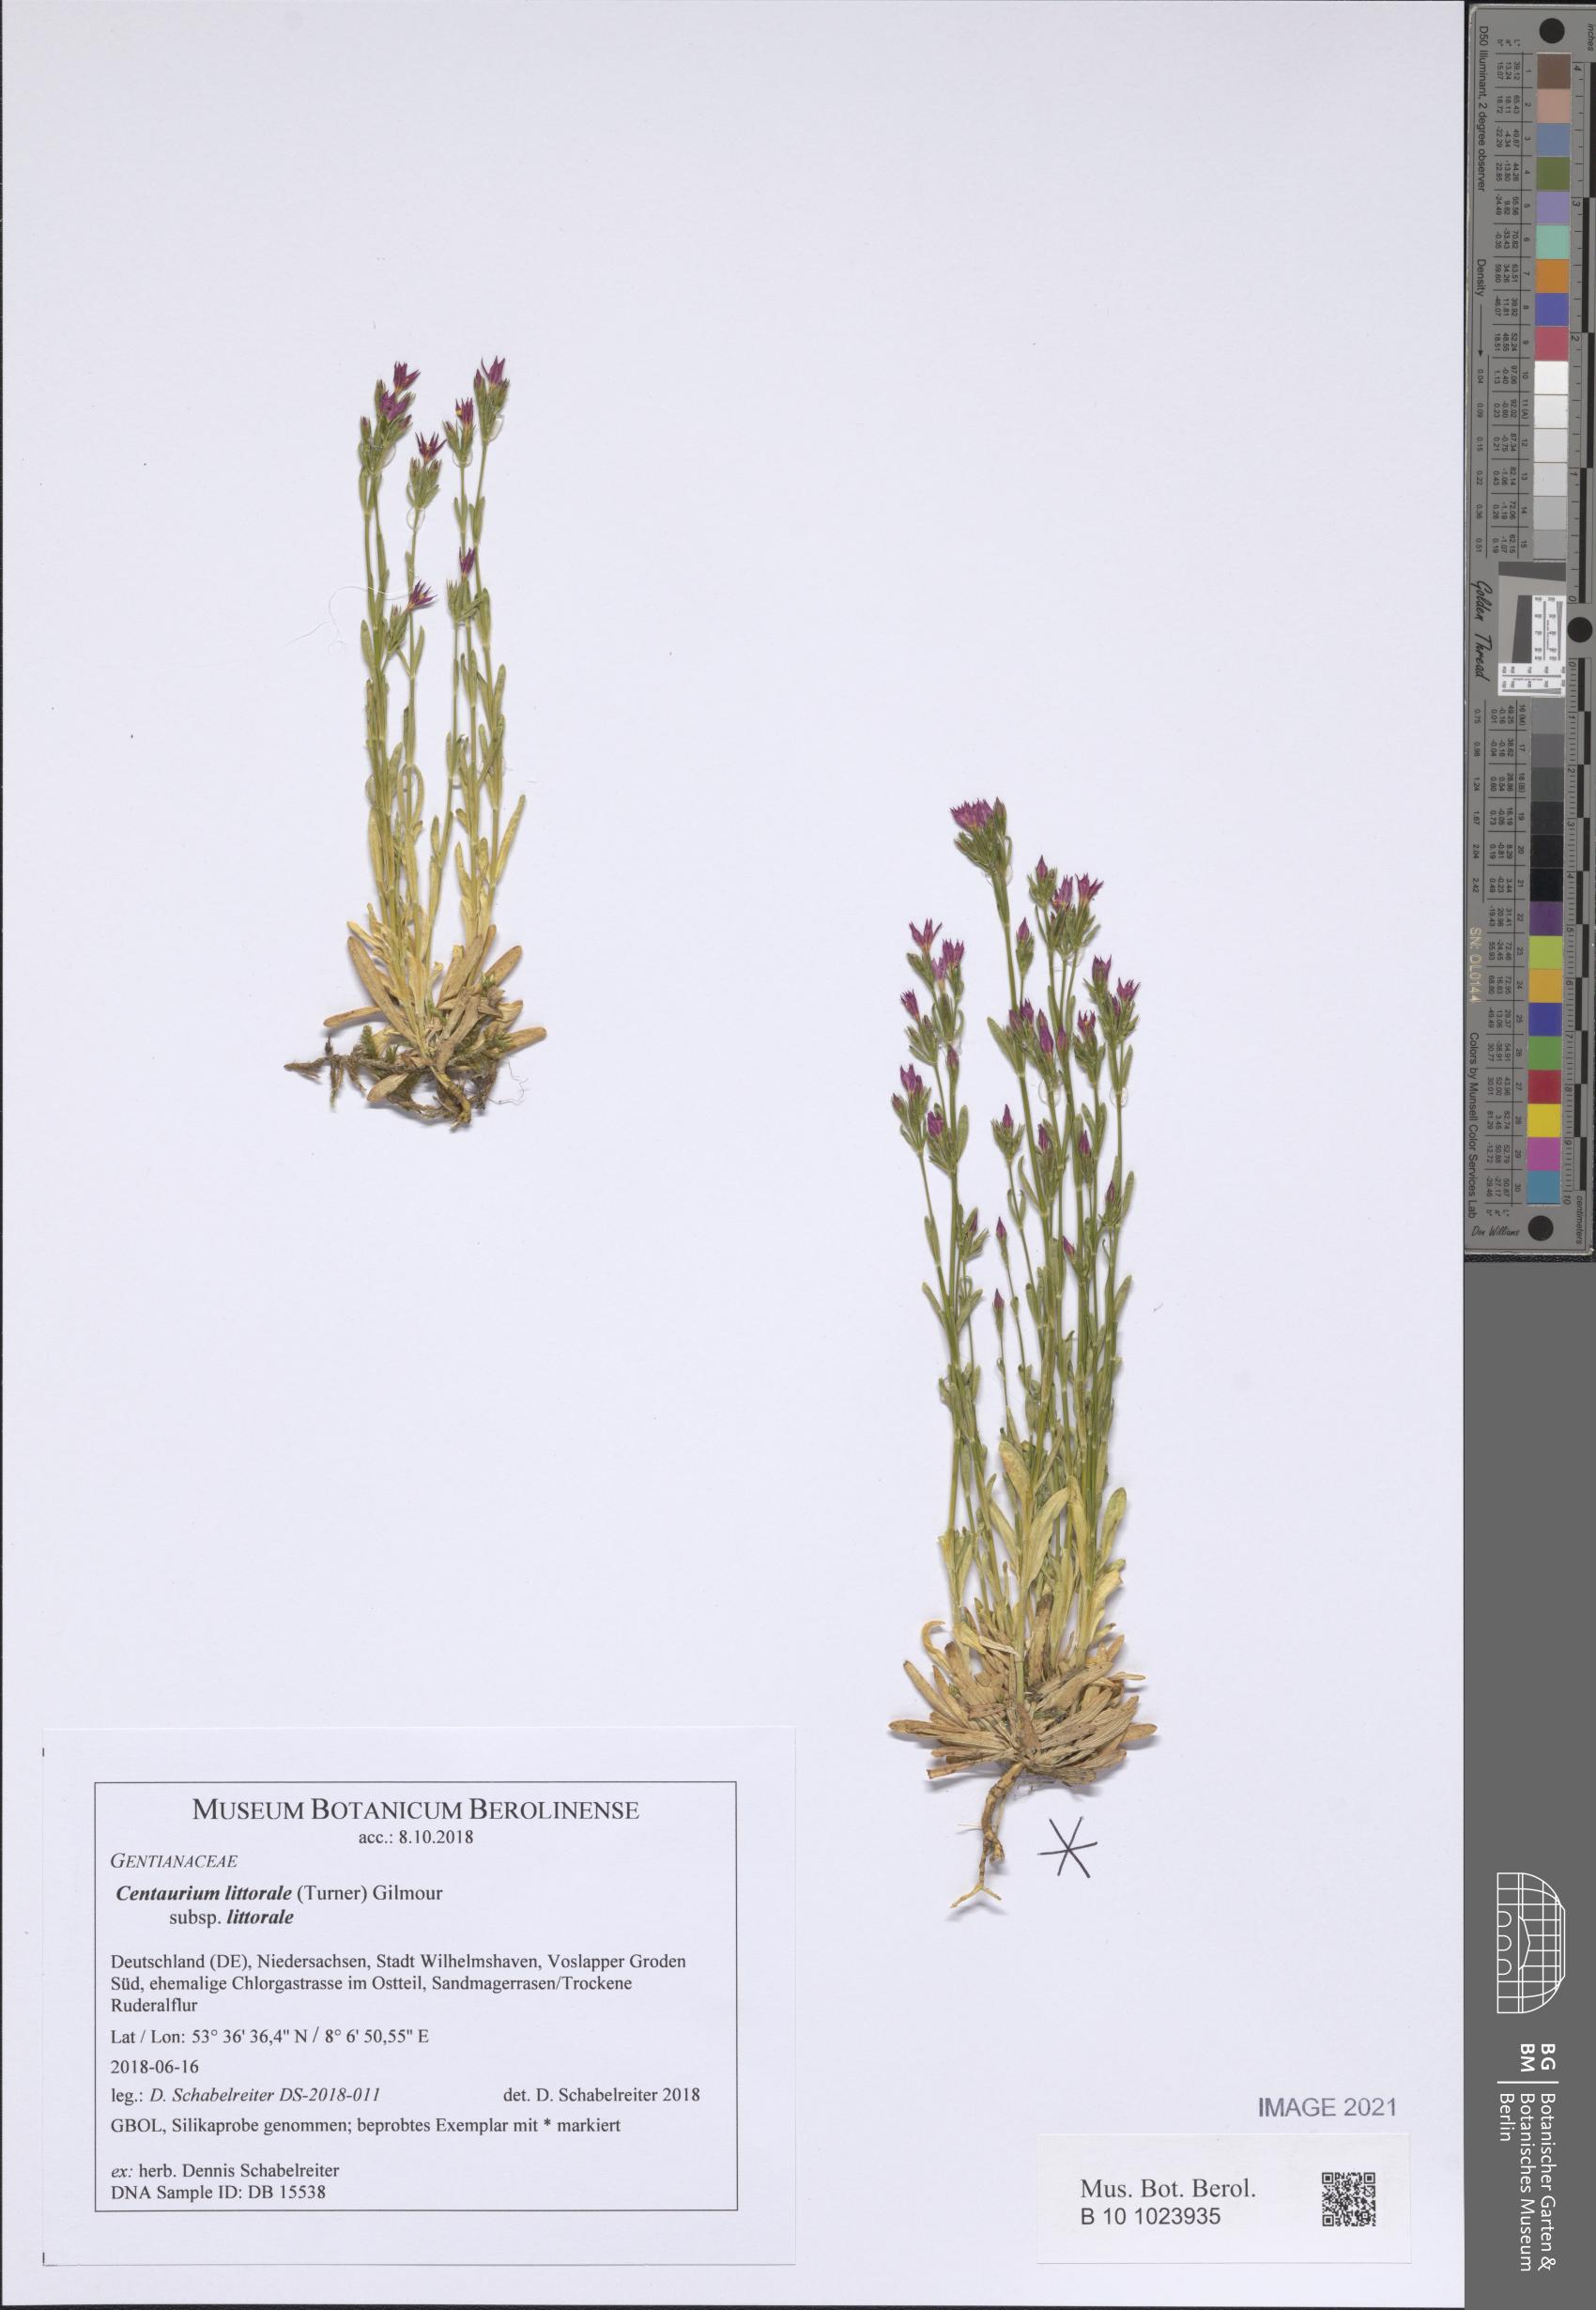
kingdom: Plantae
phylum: Tracheophyta
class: Magnoliopsida
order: Gentianales
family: Gentianaceae
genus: Centaurium
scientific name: Centaurium littorale
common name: Seaside centaury
